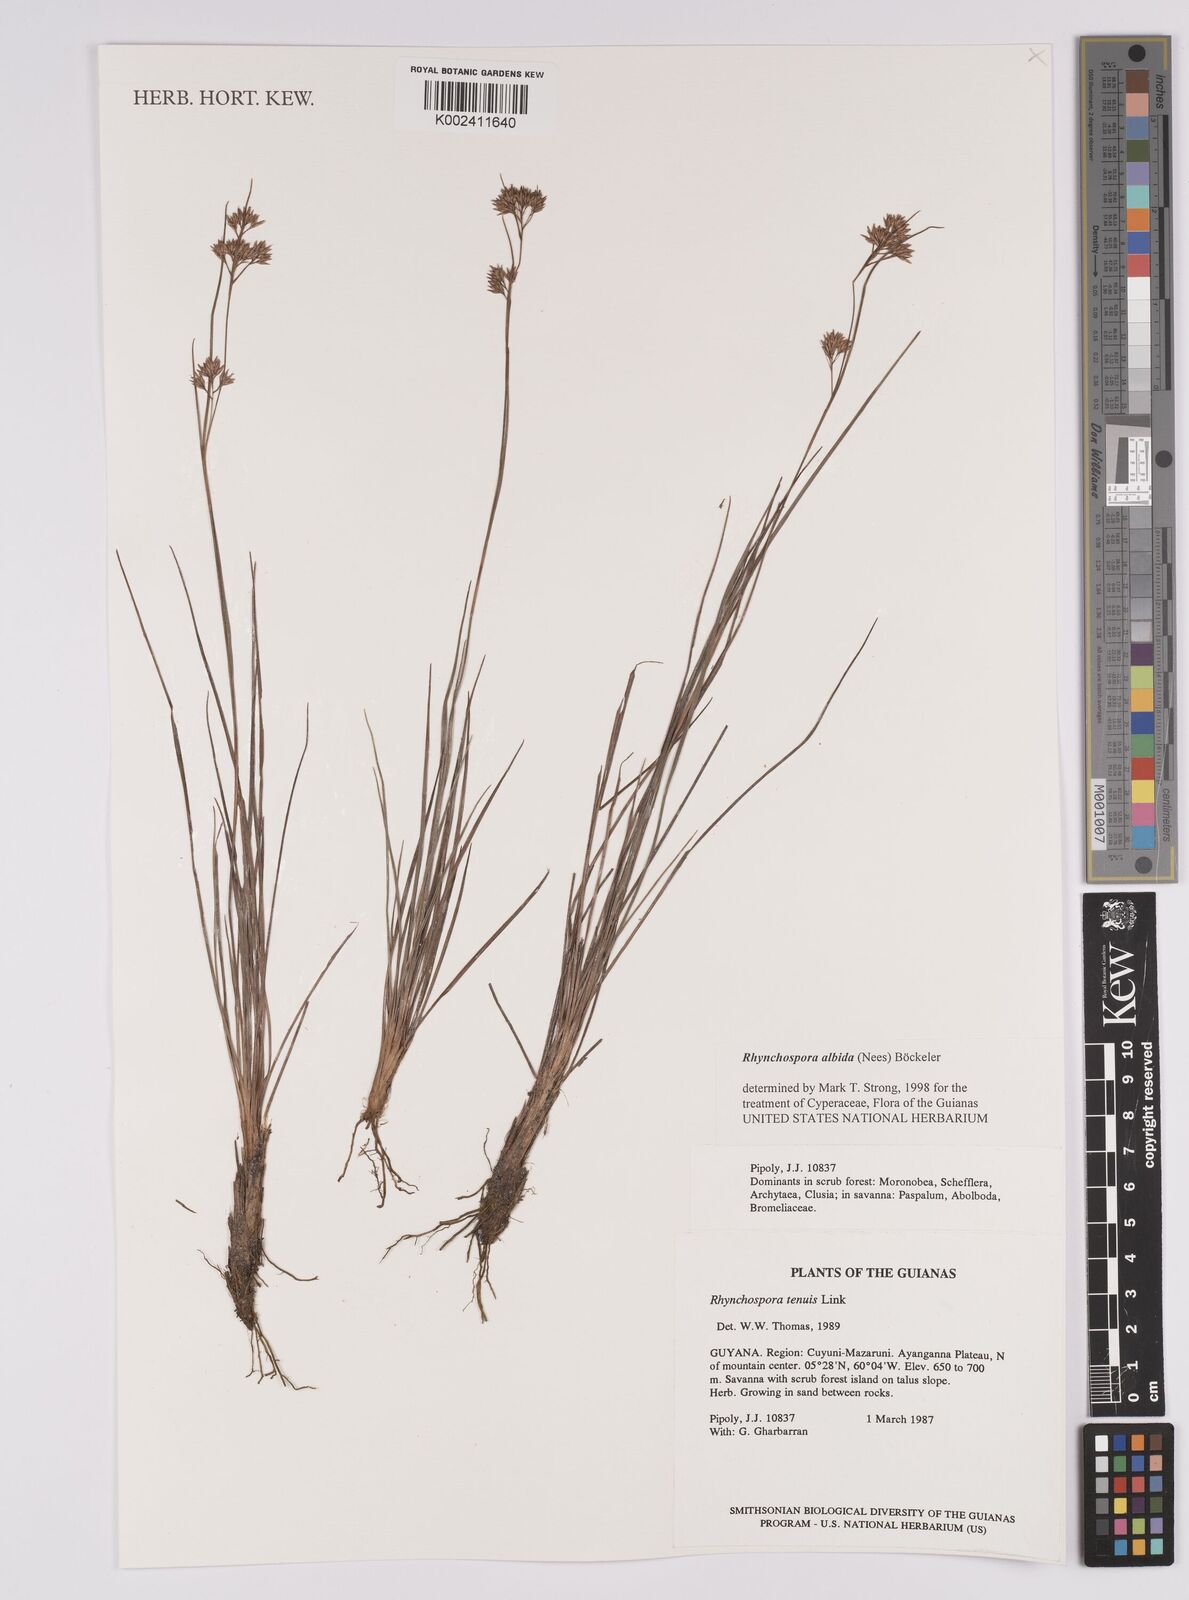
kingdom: Plantae
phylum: Tracheophyta
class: Liliopsida
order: Poales
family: Cyperaceae
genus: Rhynchospora
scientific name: Rhynchospora albida
